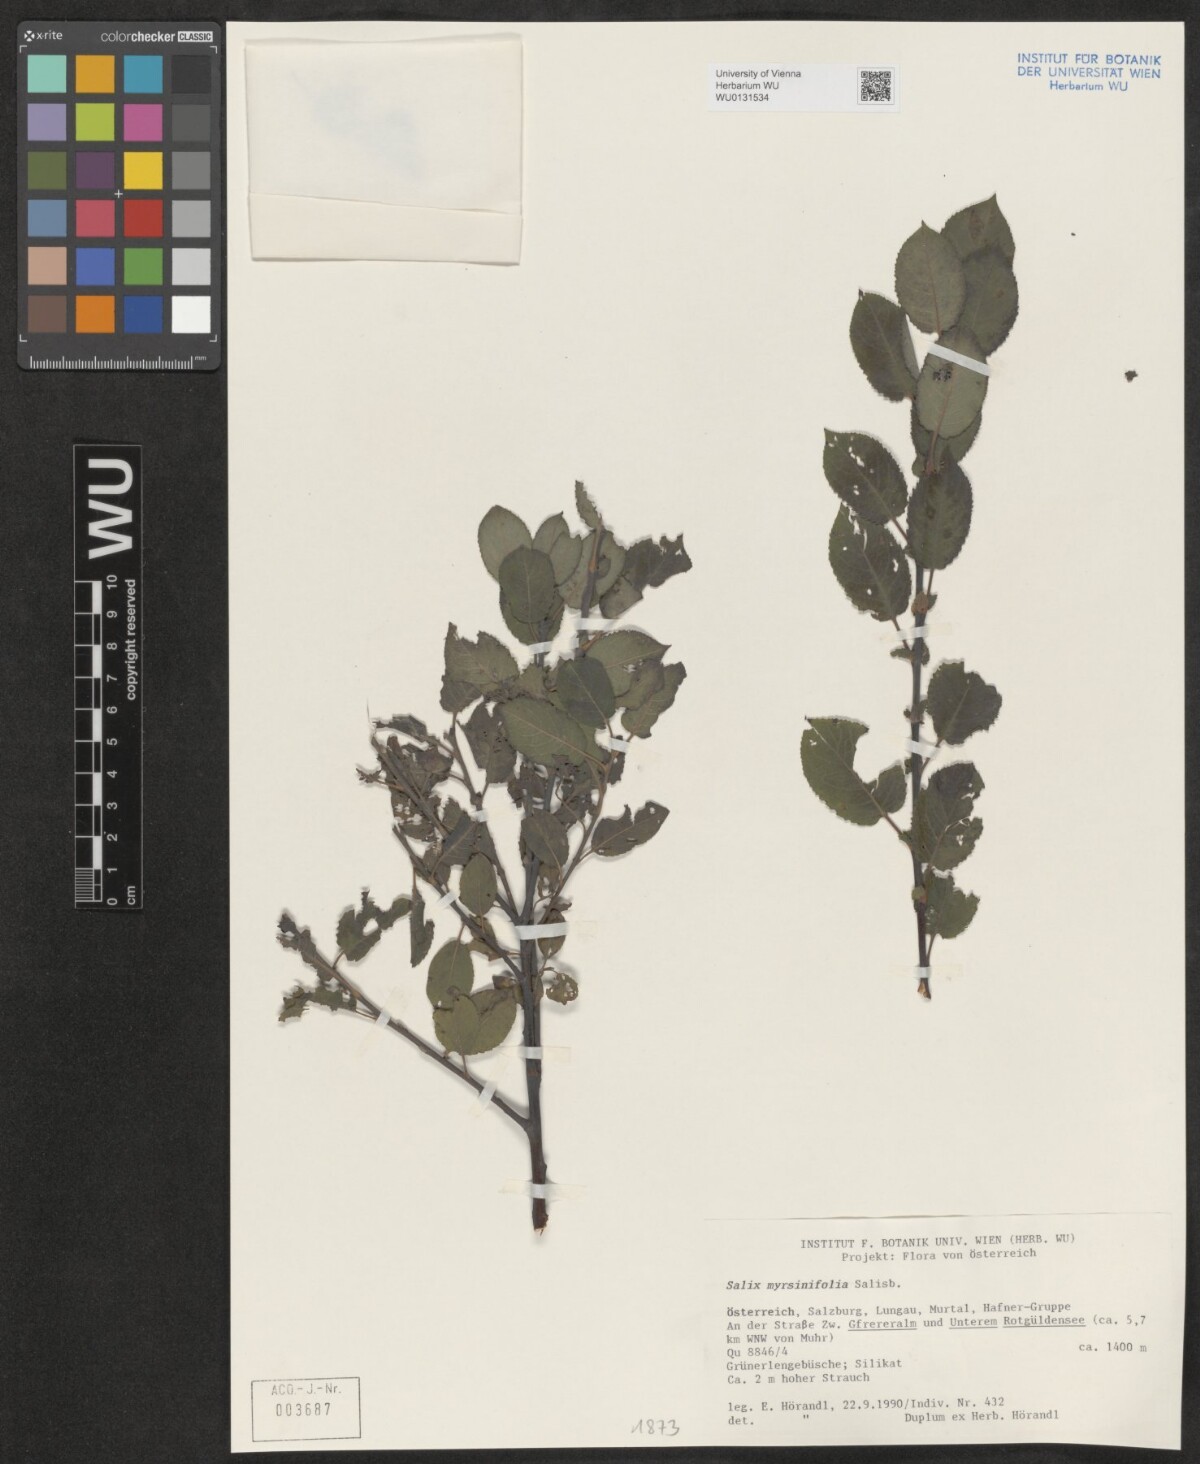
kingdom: Plantae
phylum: Tracheophyta
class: Magnoliopsida
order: Malpighiales
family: Salicaceae
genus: Salix
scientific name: Salix myrsinifolia
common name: Dark-leaved willow
